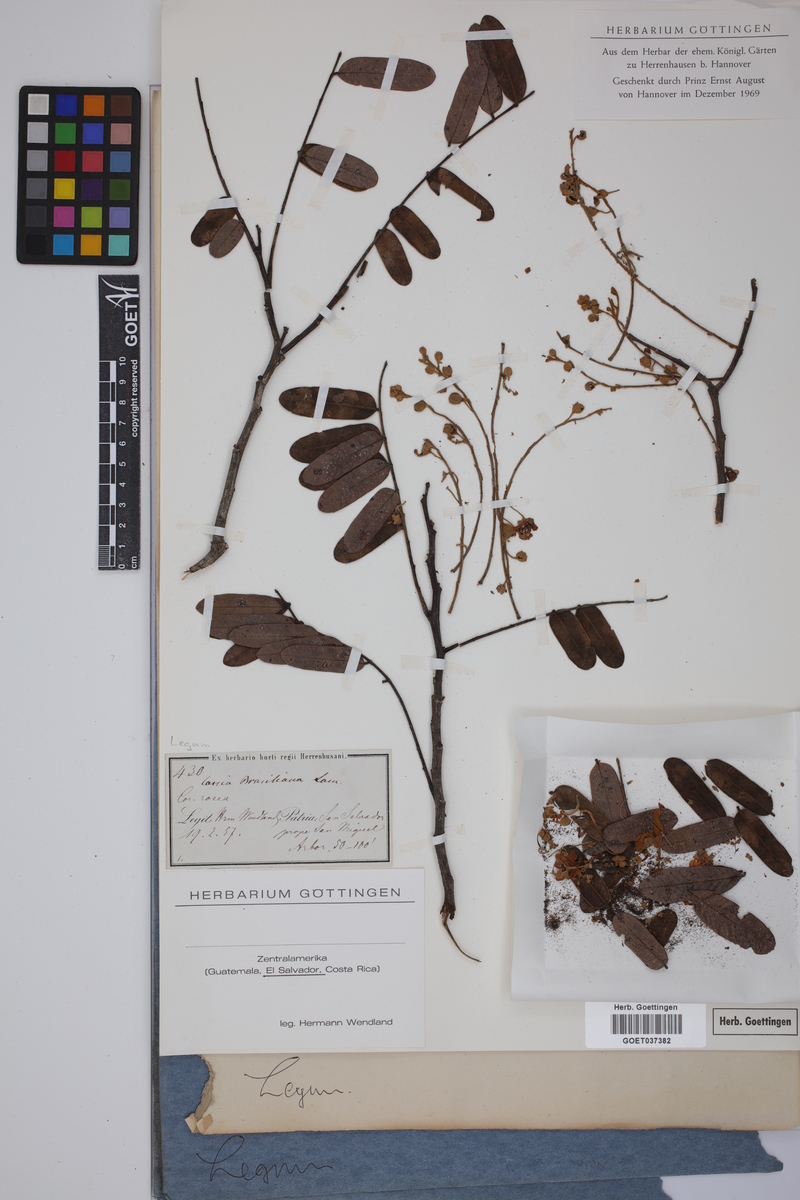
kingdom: Plantae
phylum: Tracheophyta
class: Magnoliopsida
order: Fabales
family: Fabaceae
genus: Cassia
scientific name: Cassia grandis
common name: Appleblossom cassia
